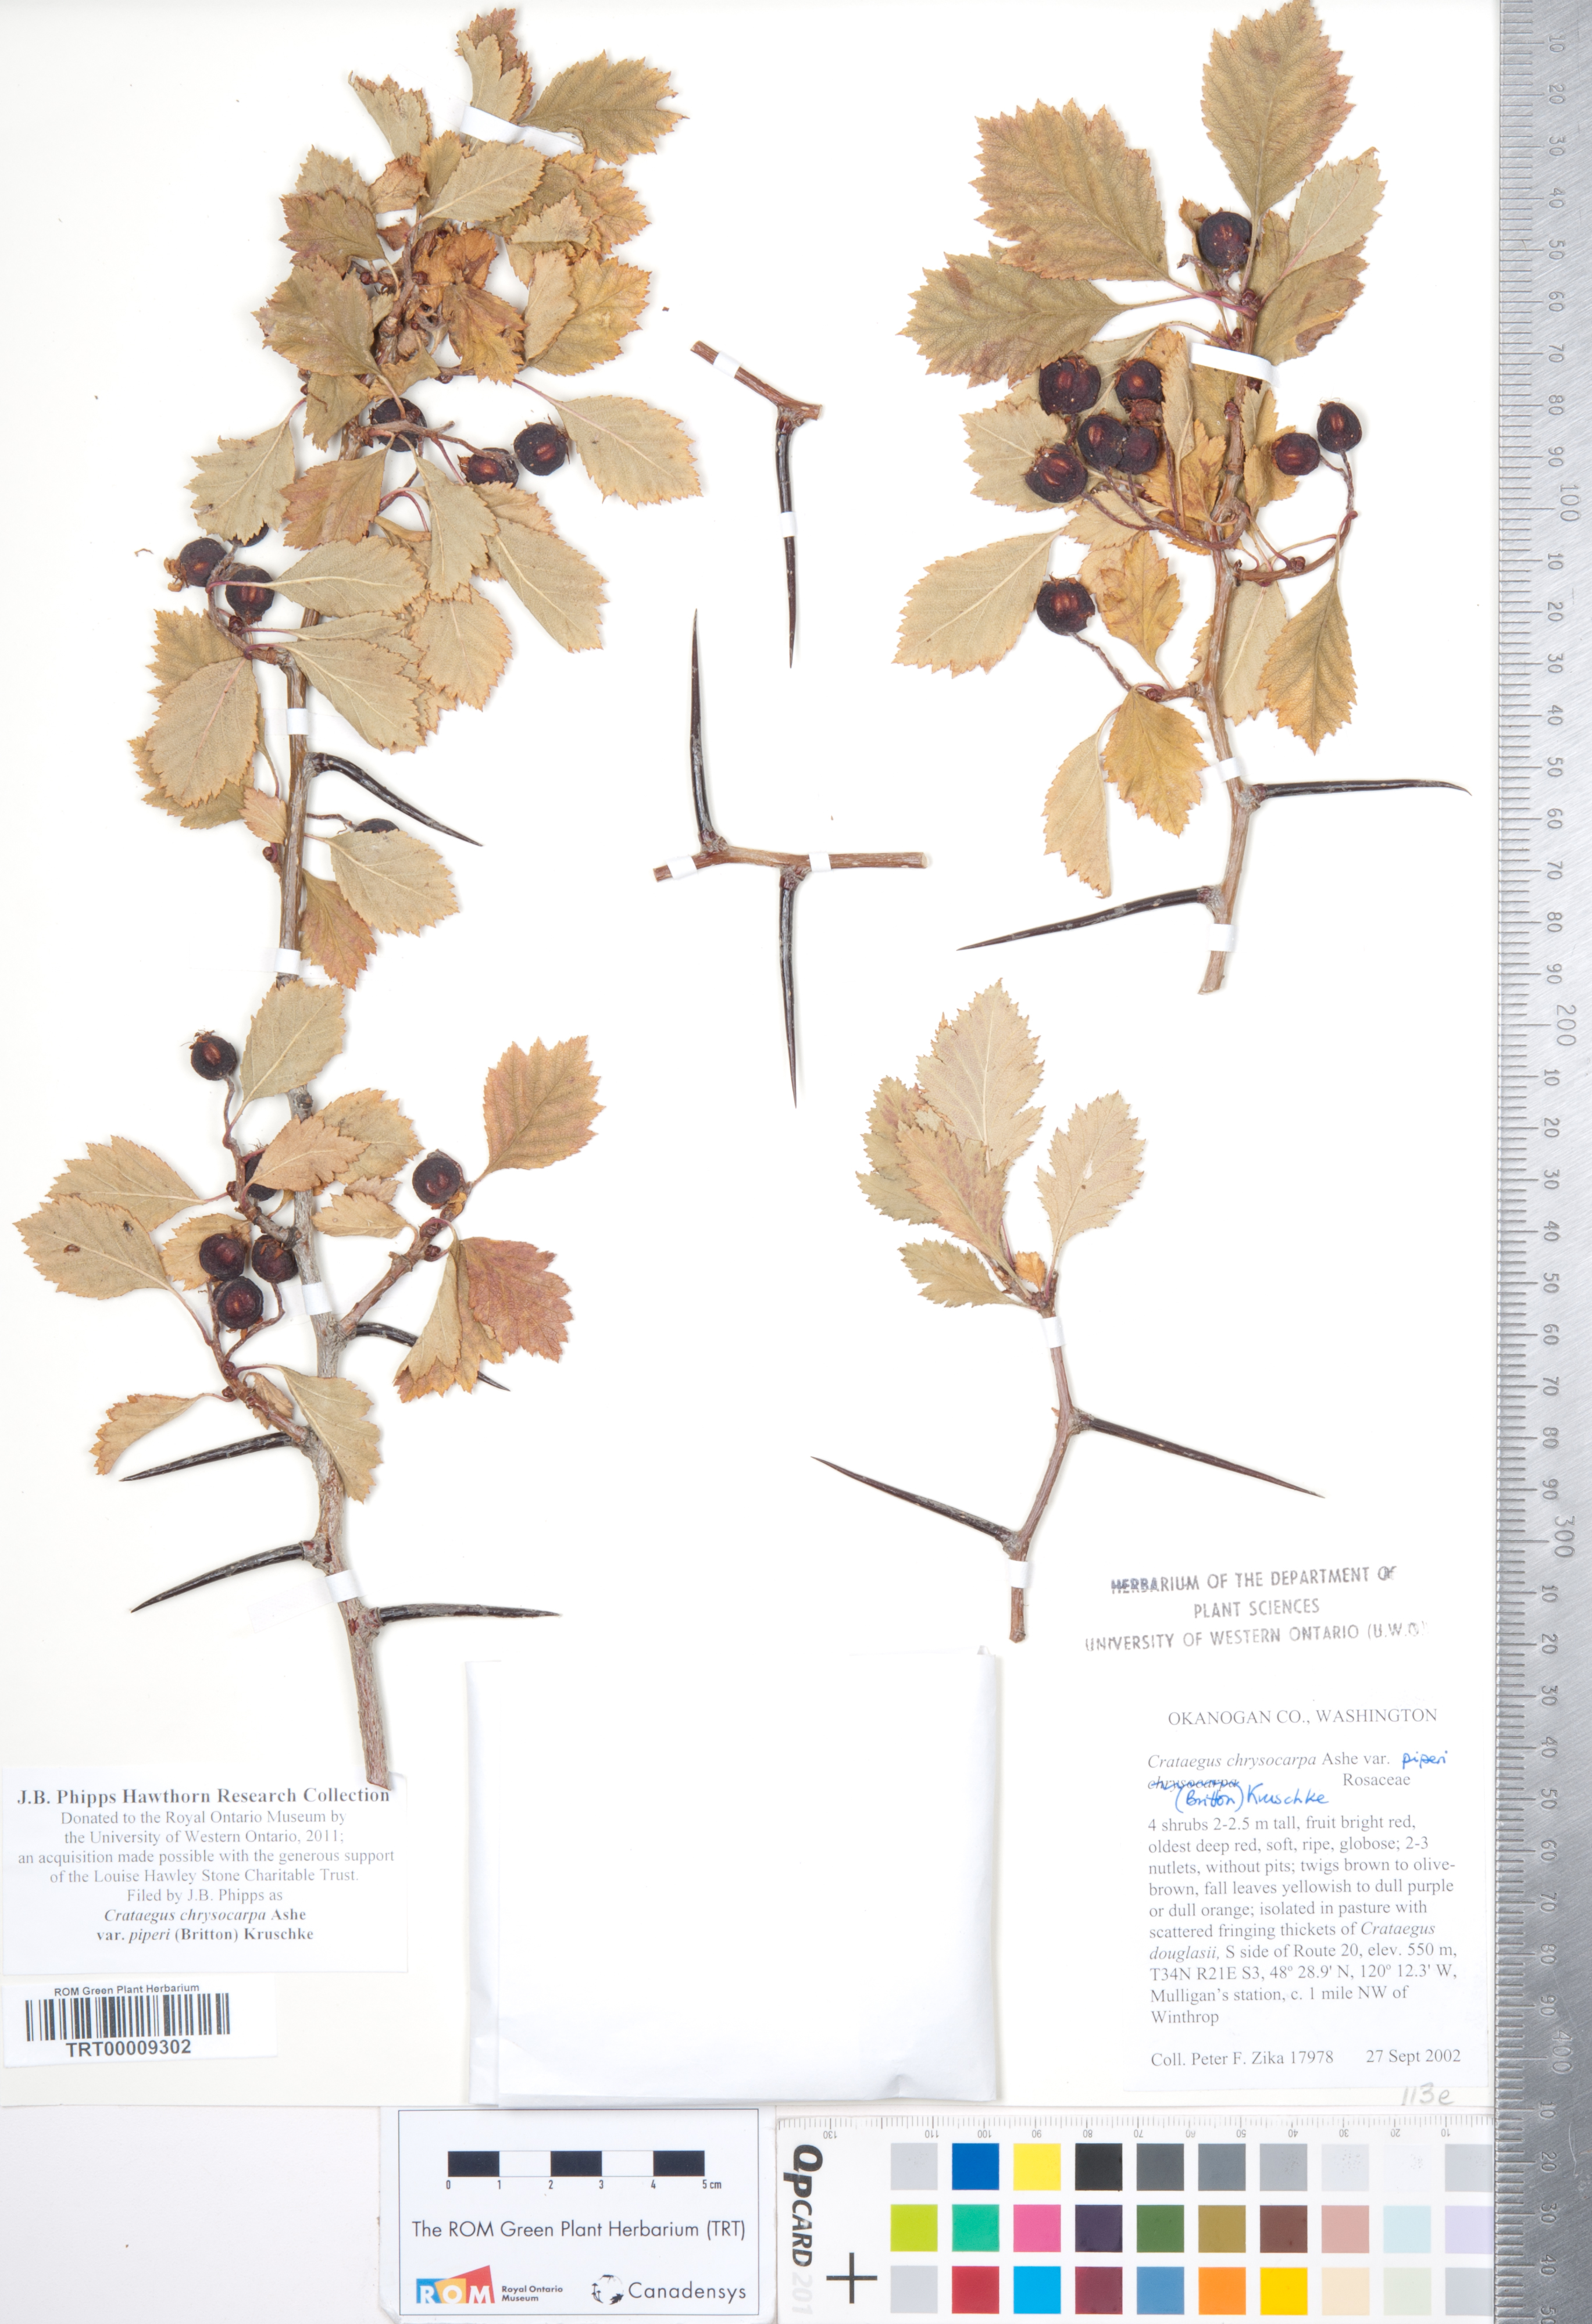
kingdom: Plantae
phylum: Tracheophyta
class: Magnoliopsida
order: Rosales
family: Rosaceae
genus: Crataegus
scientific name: Crataegus piperi
